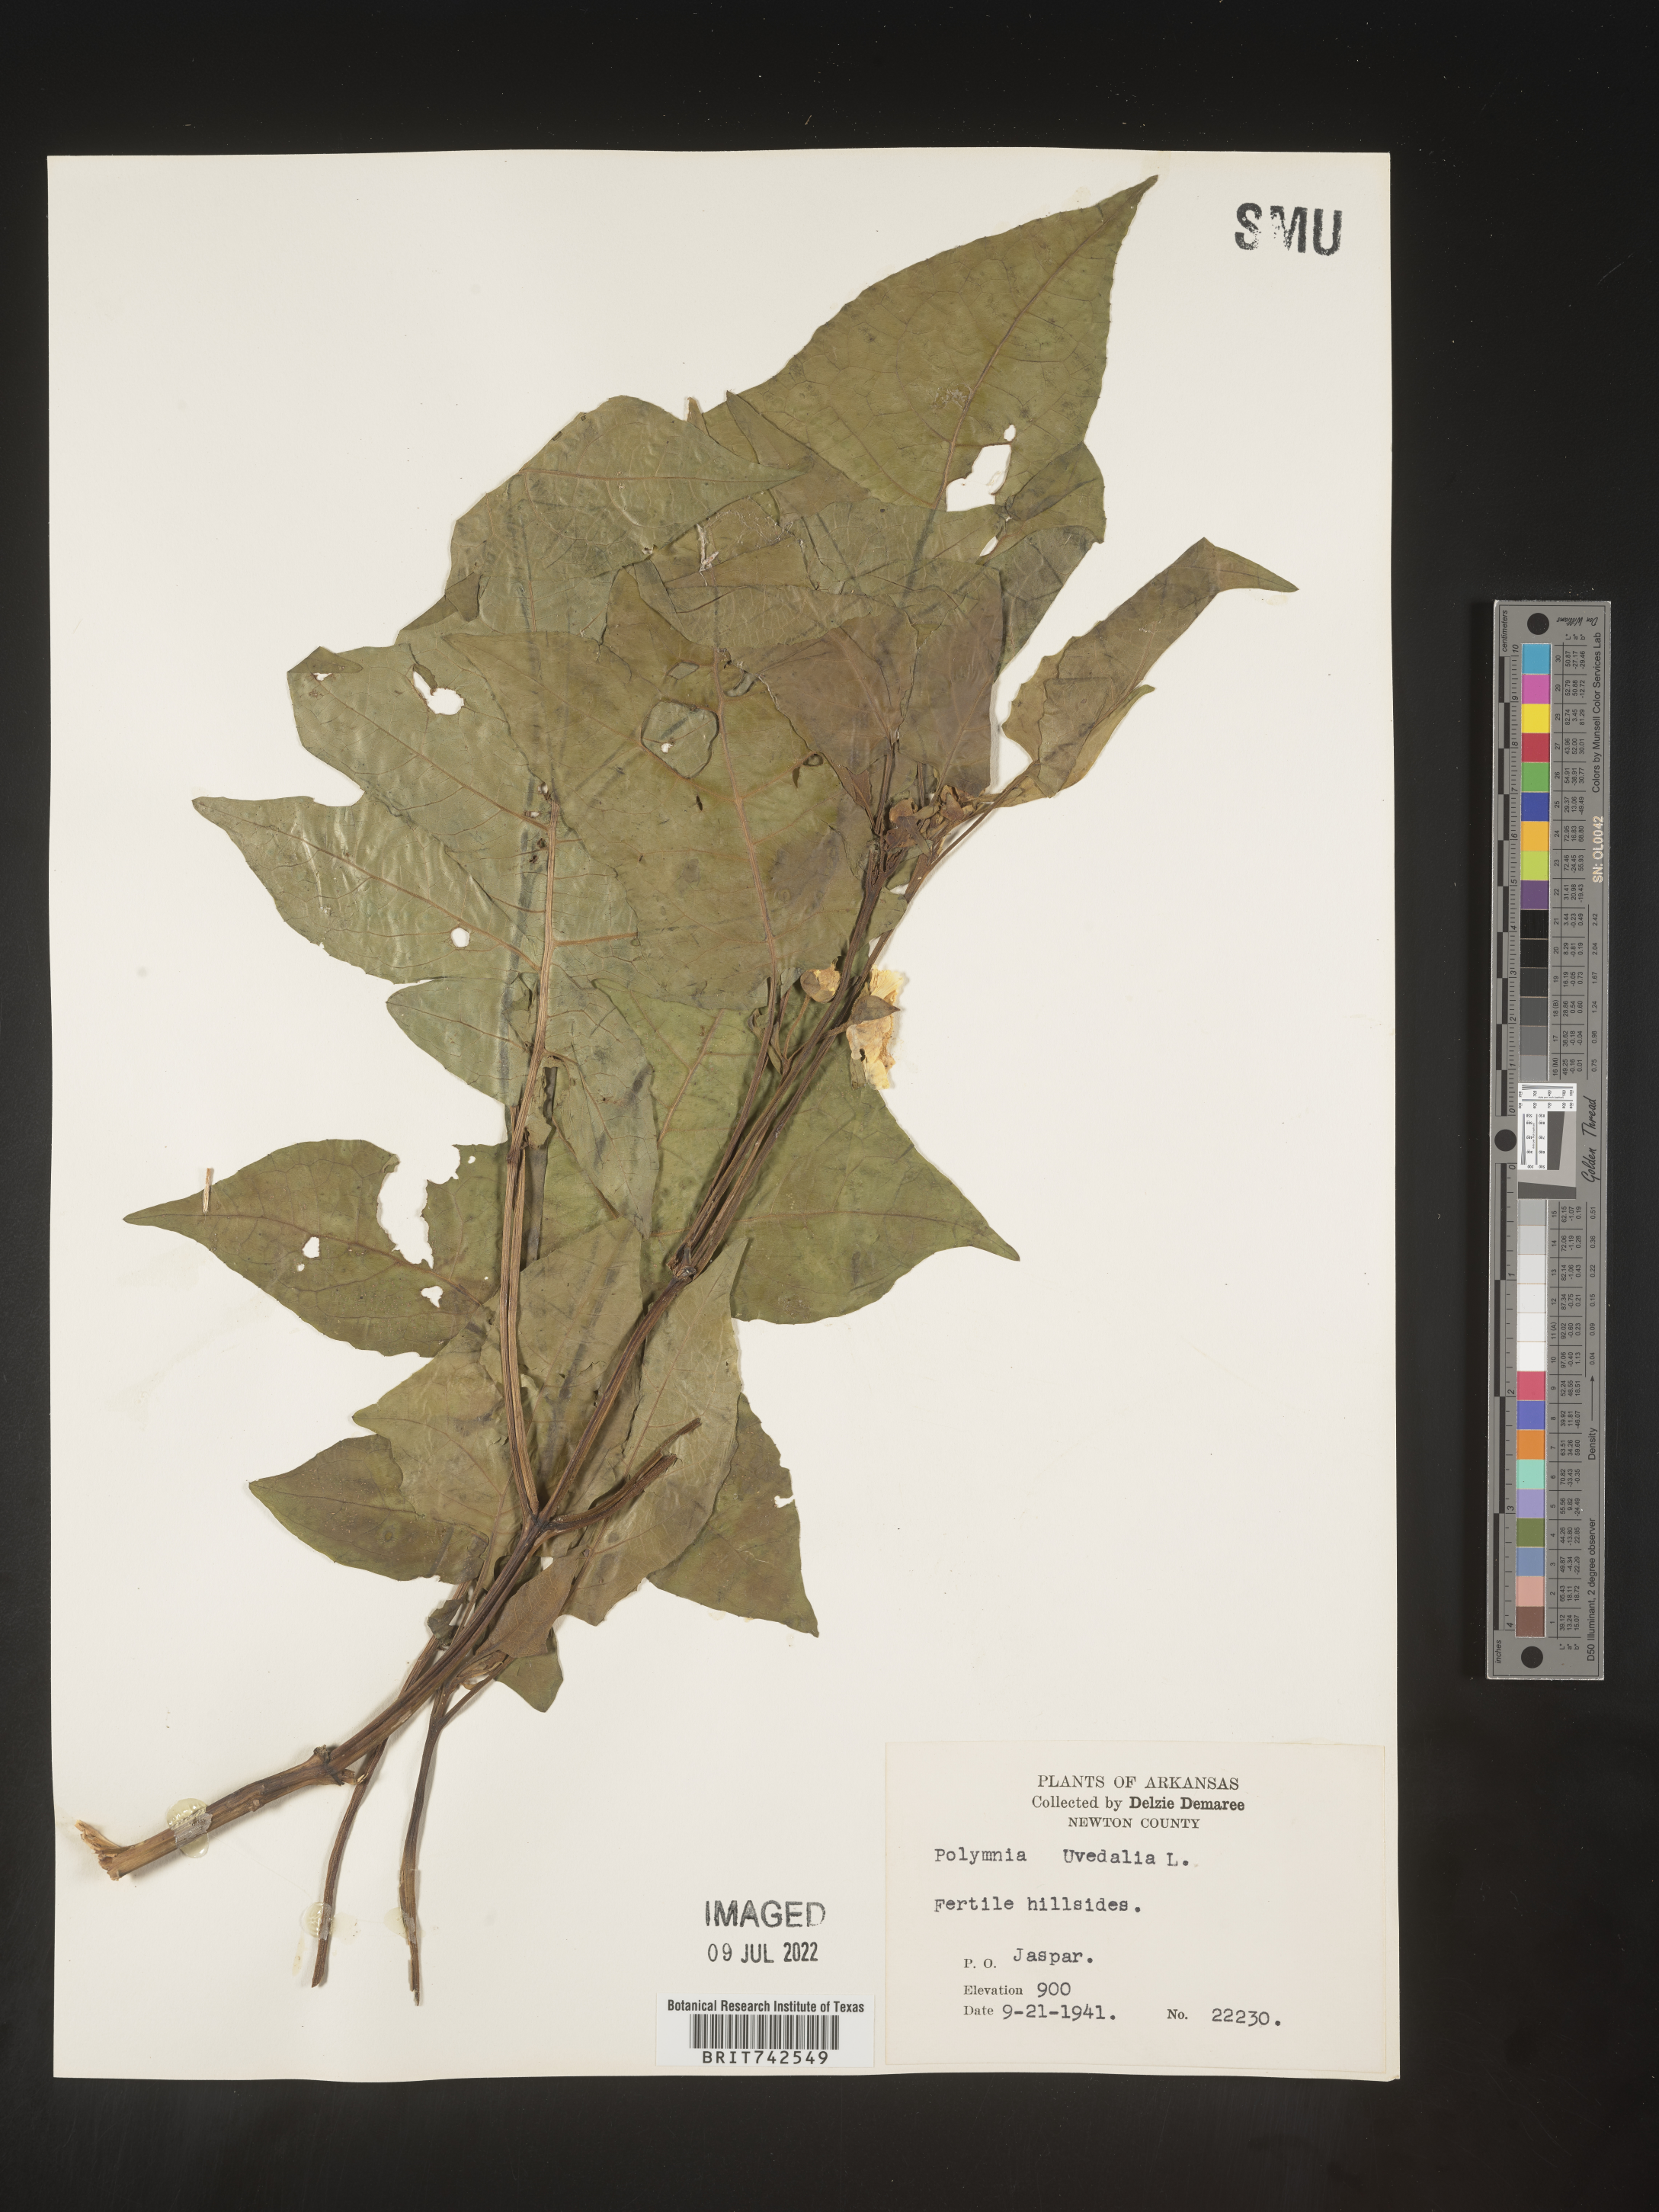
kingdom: Plantae
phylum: Tracheophyta
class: Magnoliopsida
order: Asterales
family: Asteraceae
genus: Smallanthus
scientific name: Smallanthus uvedalia
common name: Bear's-foot
